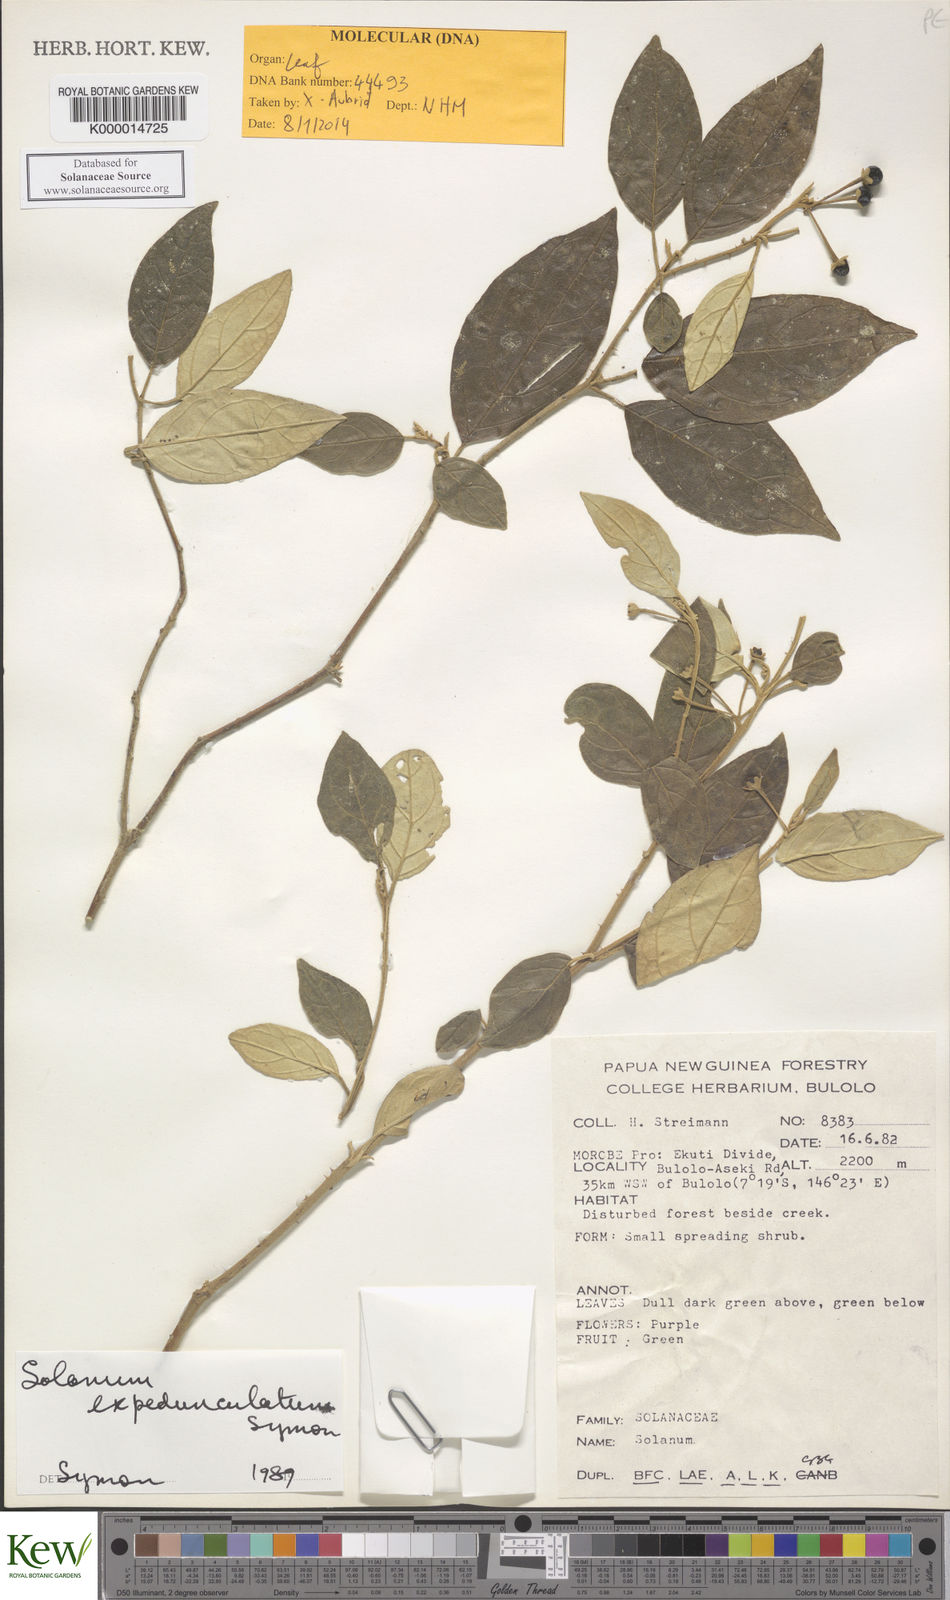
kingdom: Plantae
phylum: Tracheophyta
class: Magnoliopsida
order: Solanales
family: Solanaceae
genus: Solanum
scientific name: Solanum expedunculatum
